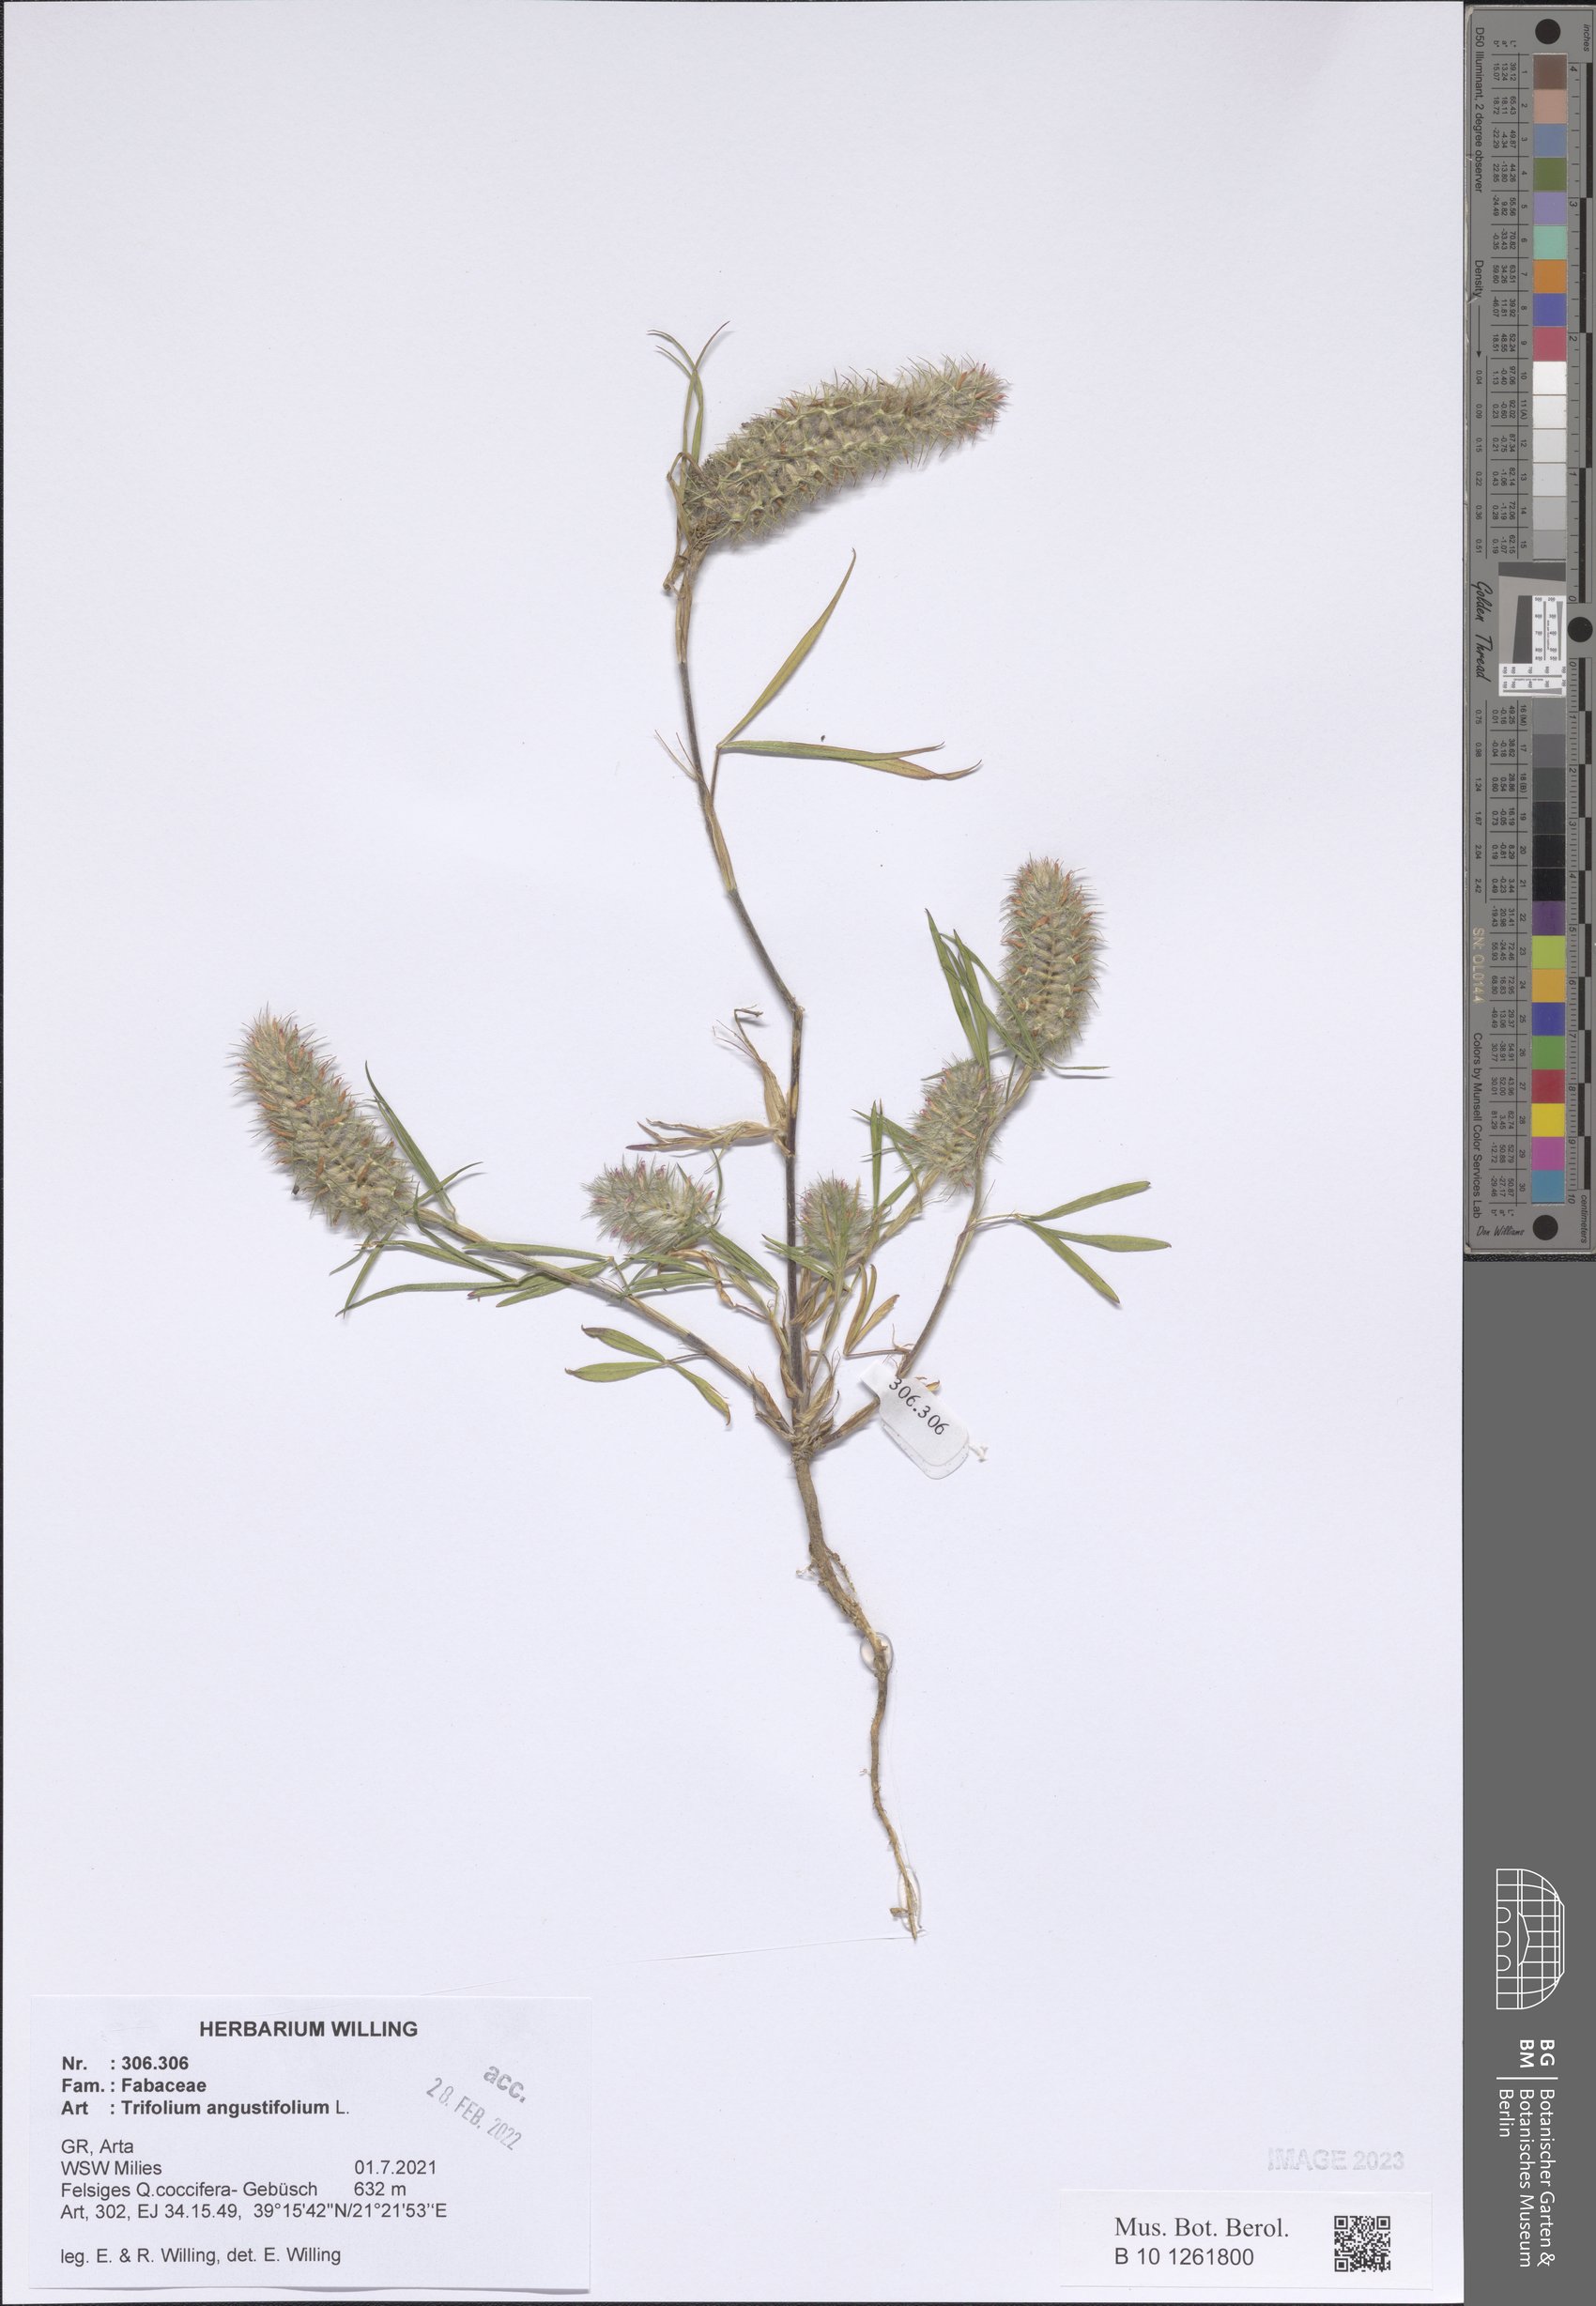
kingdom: Plantae
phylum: Tracheophyta
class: Magnoliopsida
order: Fabales
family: Fabaceae
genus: Trifolium
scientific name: Trifolium angustifolium
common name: Narrow clover
